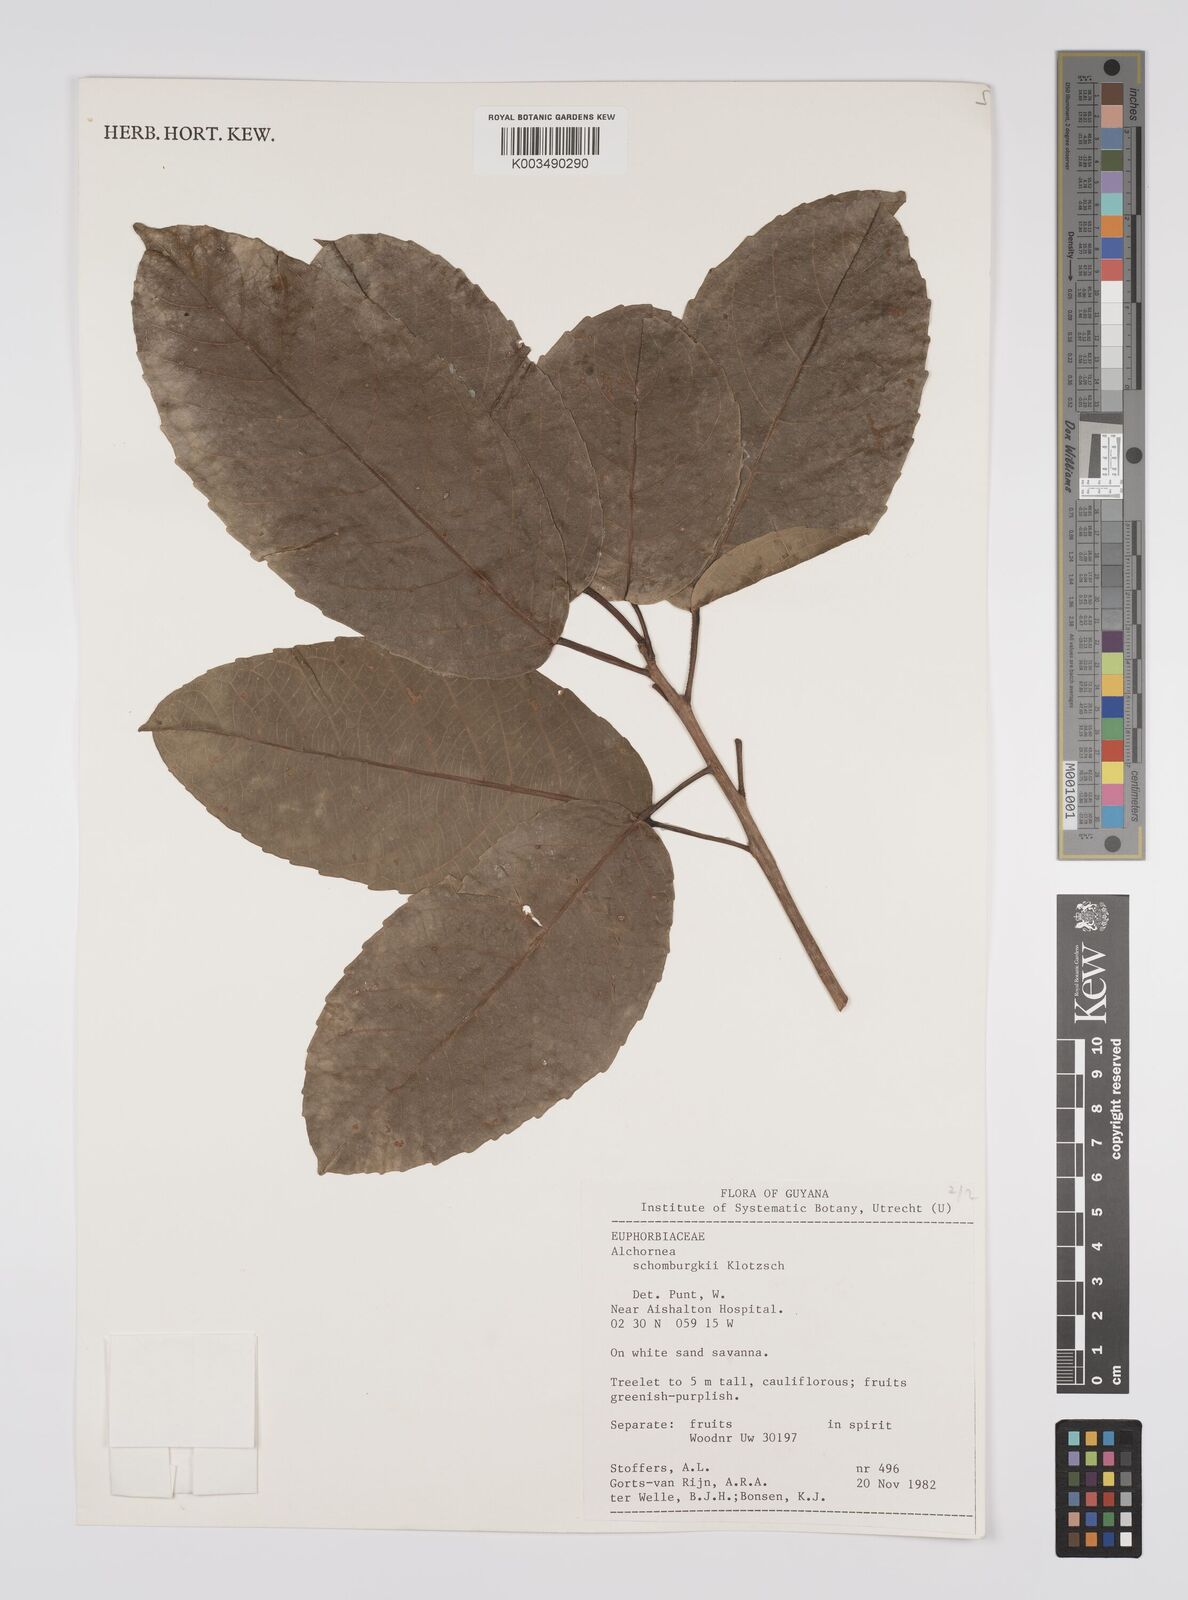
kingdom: Plantae
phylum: Tracheophyta
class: Magnoliopsida
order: Malpighiales
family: Euphorbiaceae
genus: Alchornea
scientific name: Alchornea discolor
